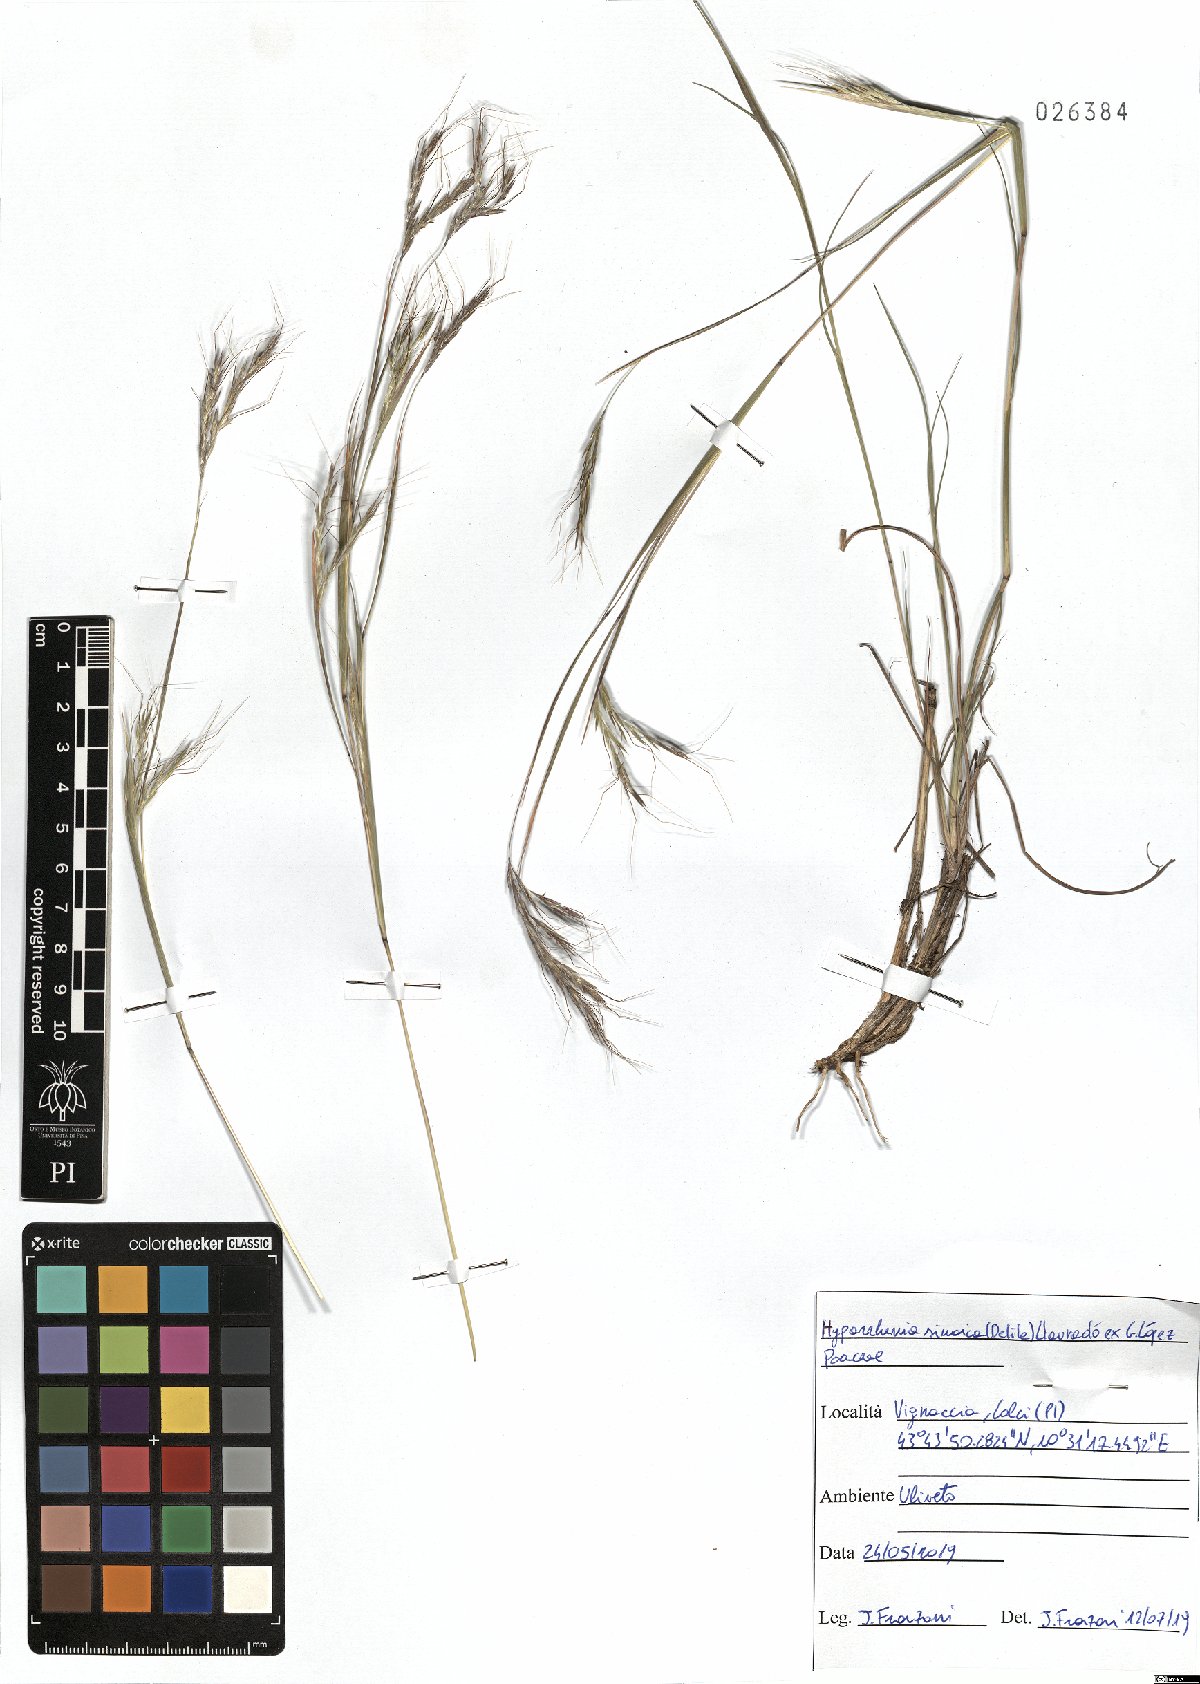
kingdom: Plantae
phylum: Tracheophyta
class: Liliopsida
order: Poales
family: Poaceae
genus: Hyparrhenia
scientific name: Hyparrhenia hirta
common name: Thatching grass
